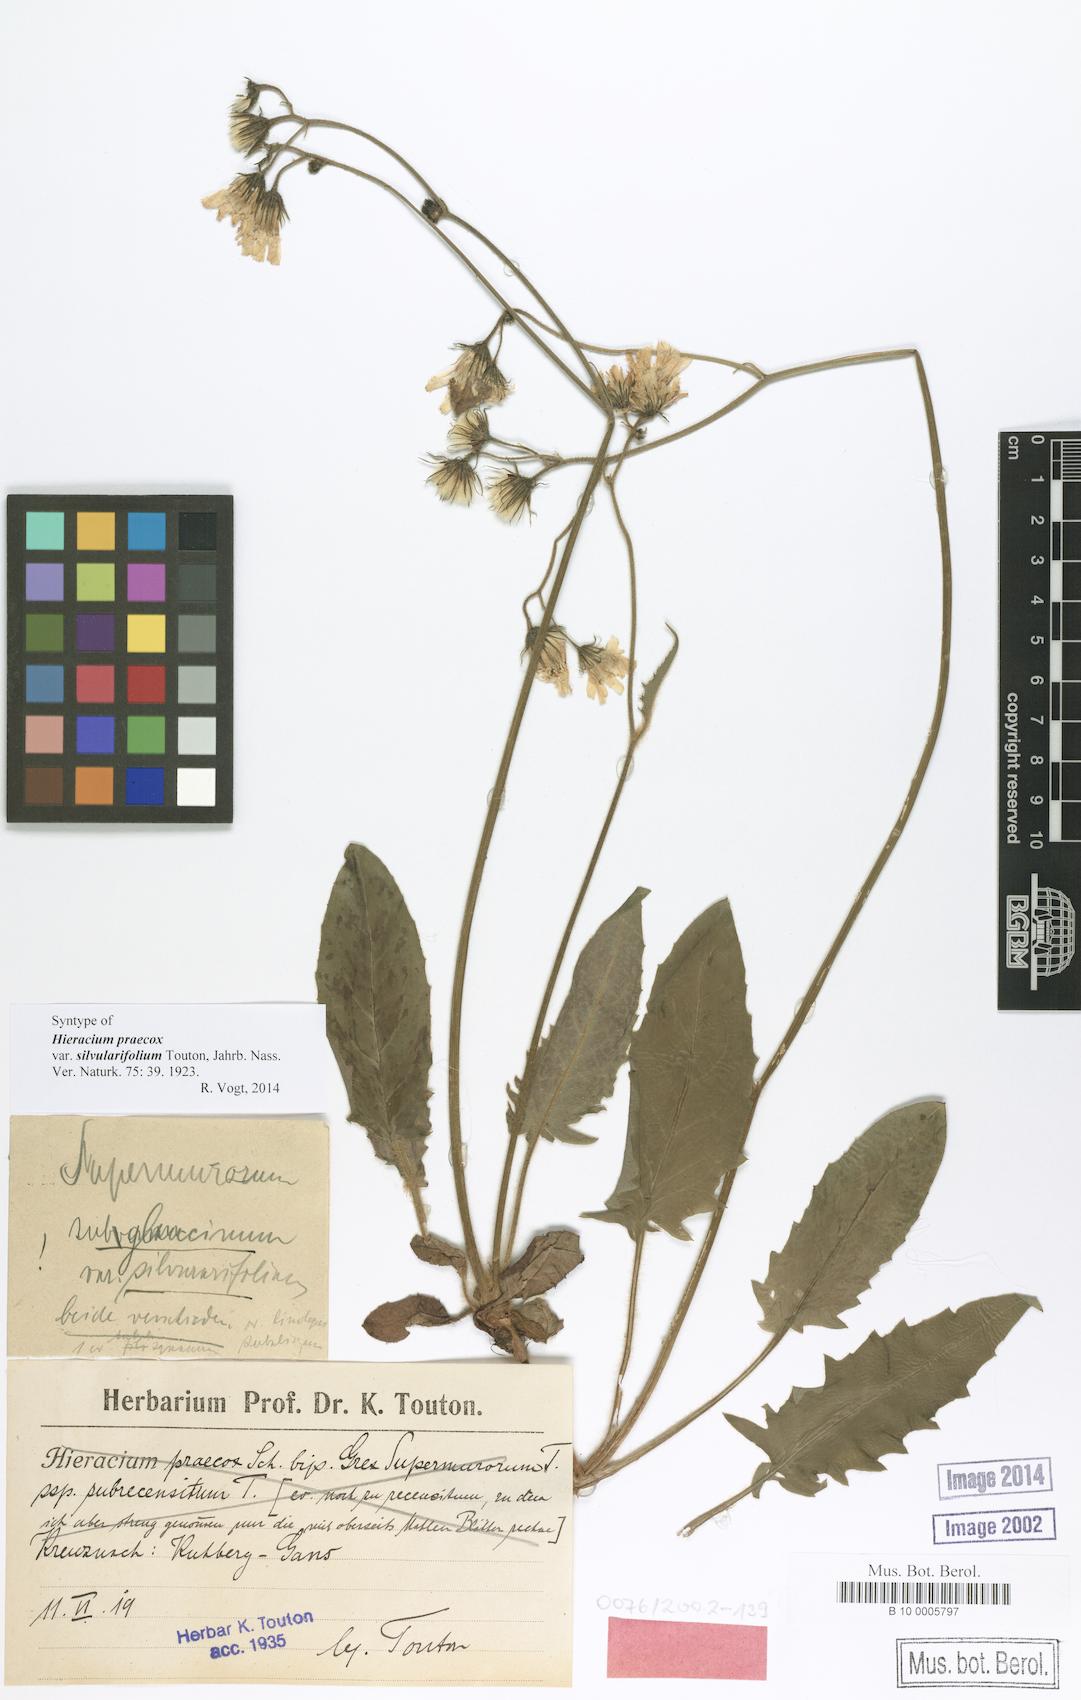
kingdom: Plantae
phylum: Tracheophyta
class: Magnoliopsida
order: Asterales
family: Asteraceae
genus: Hieracium
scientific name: Hieracium praecox
